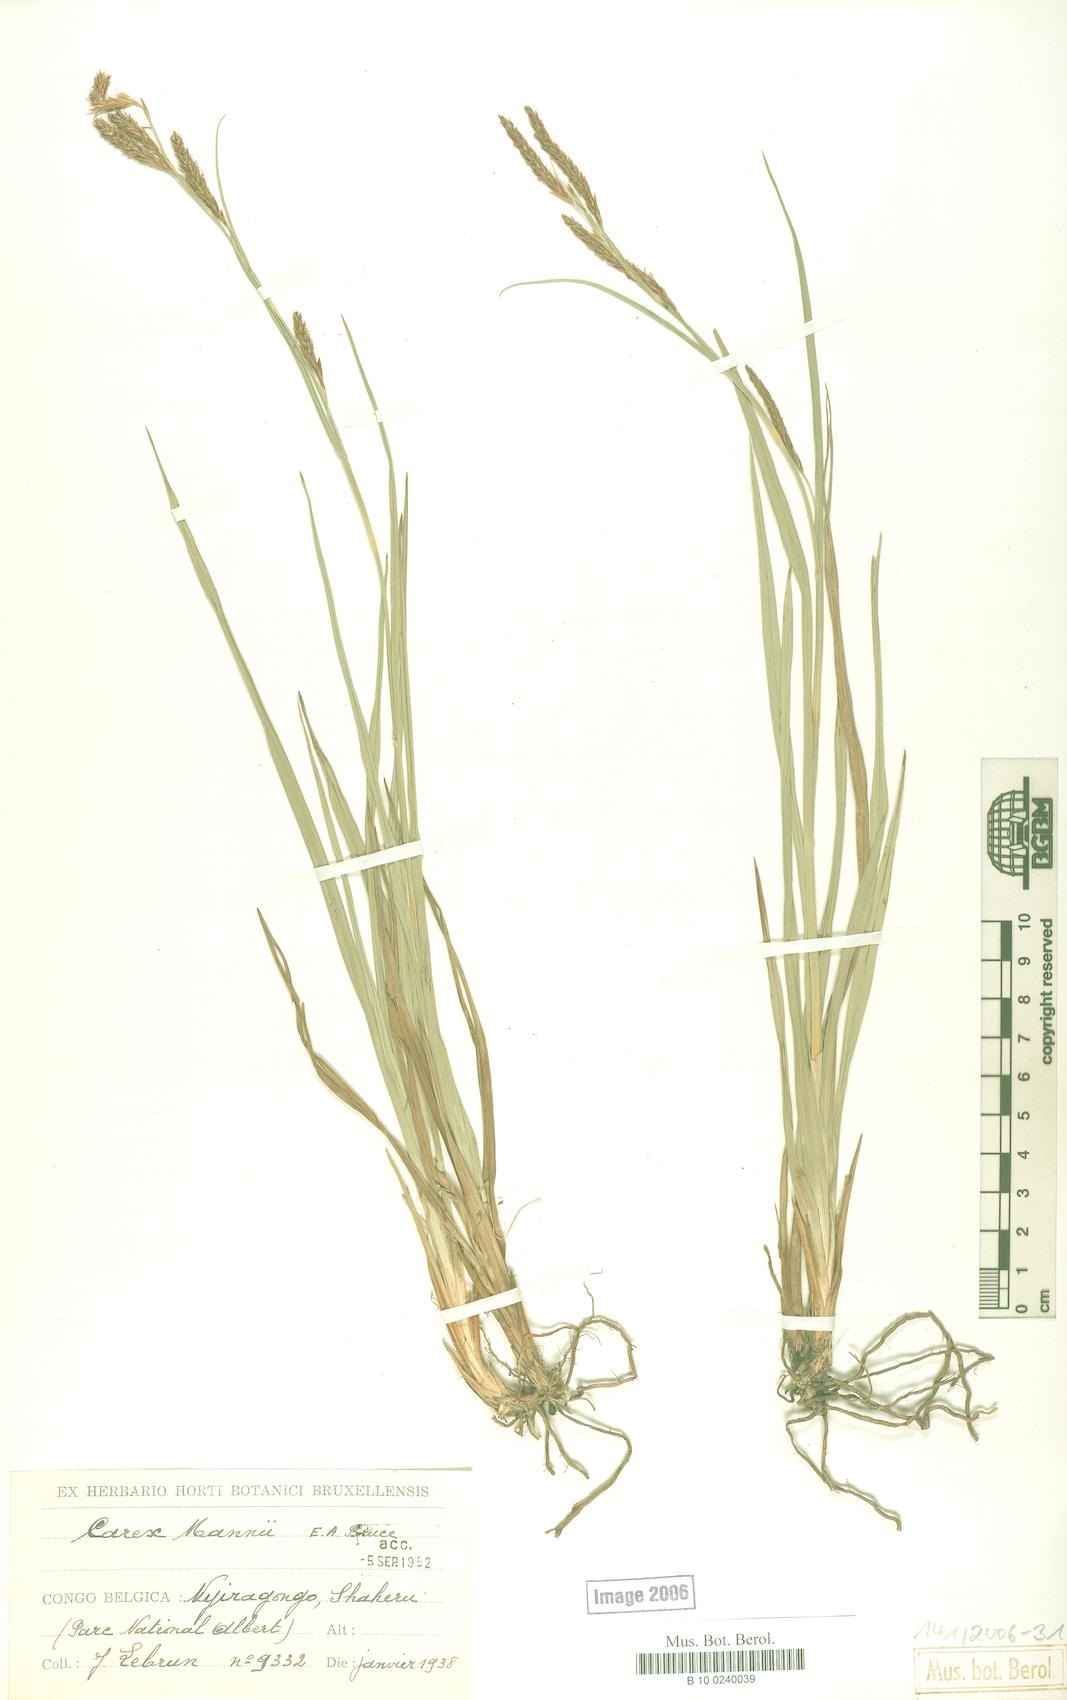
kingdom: Plantae
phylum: Tracheophyta
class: Liliopsida
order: Poales
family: Cyperaceae
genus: Carex
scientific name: Carex petitiana
